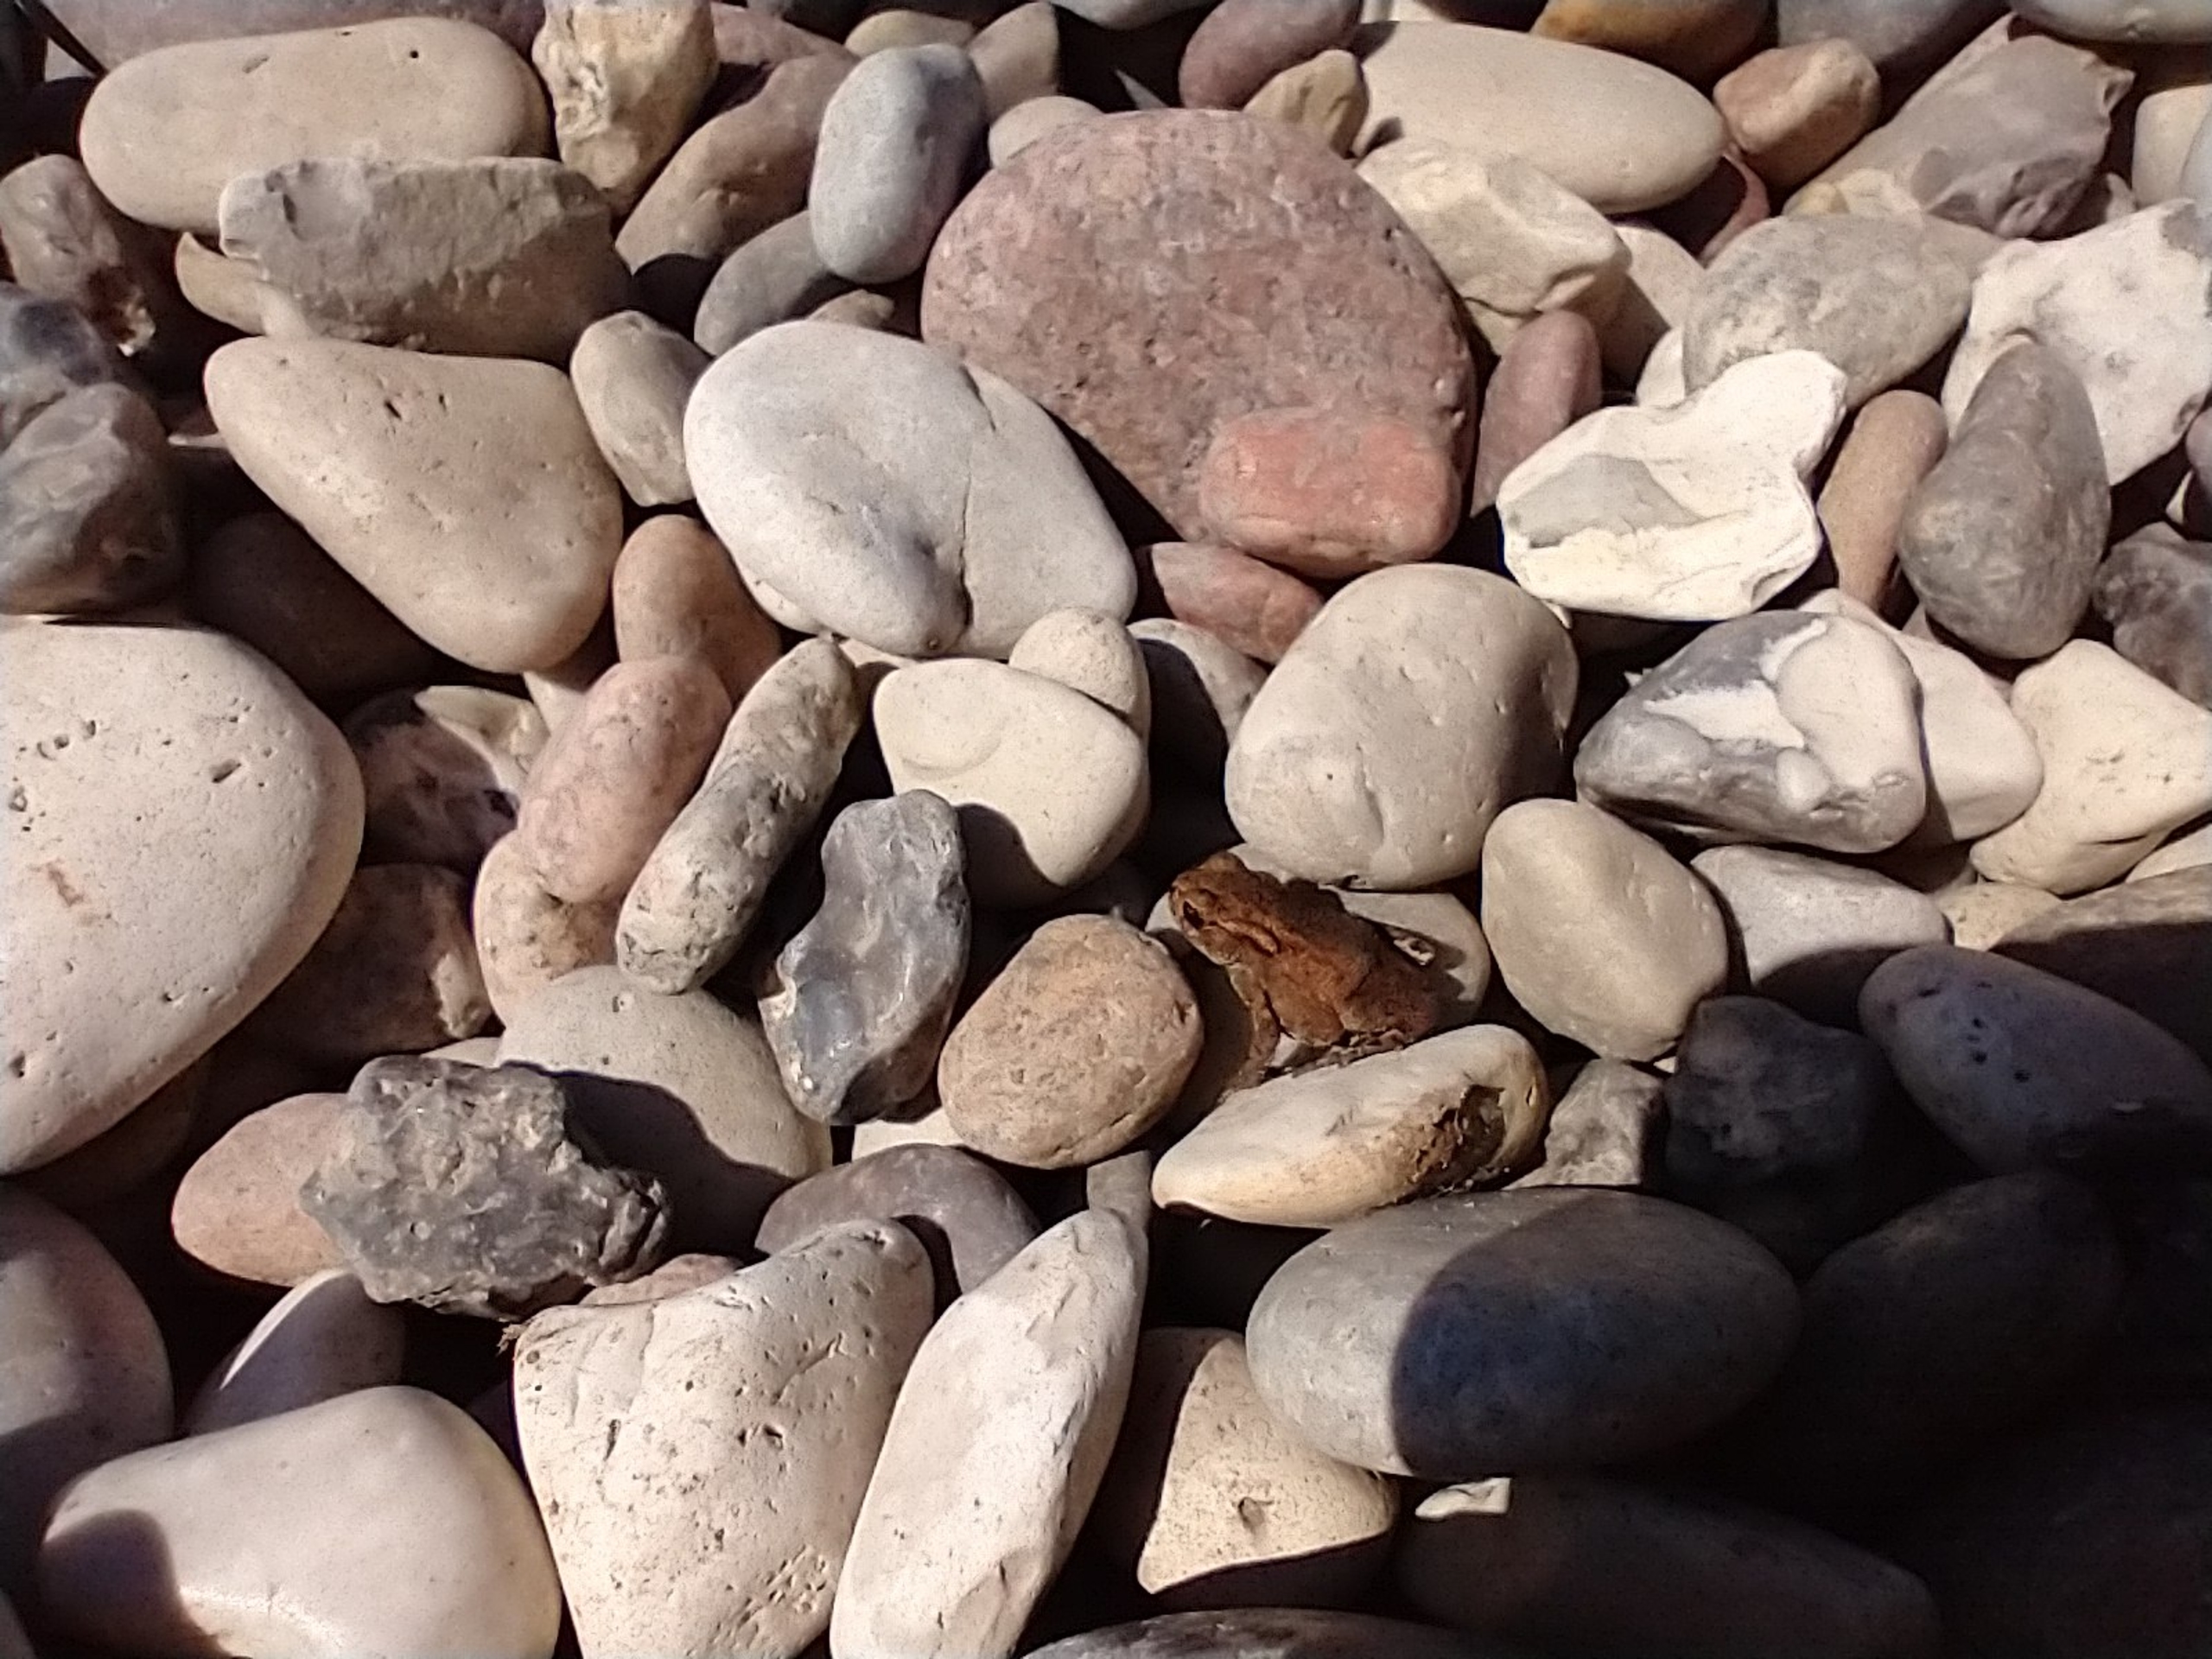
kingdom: Animalia
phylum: Chordata
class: Amphibia
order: Anura
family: Bufonidae
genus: Bufo
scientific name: Bufo bufo
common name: Skrubtudse
